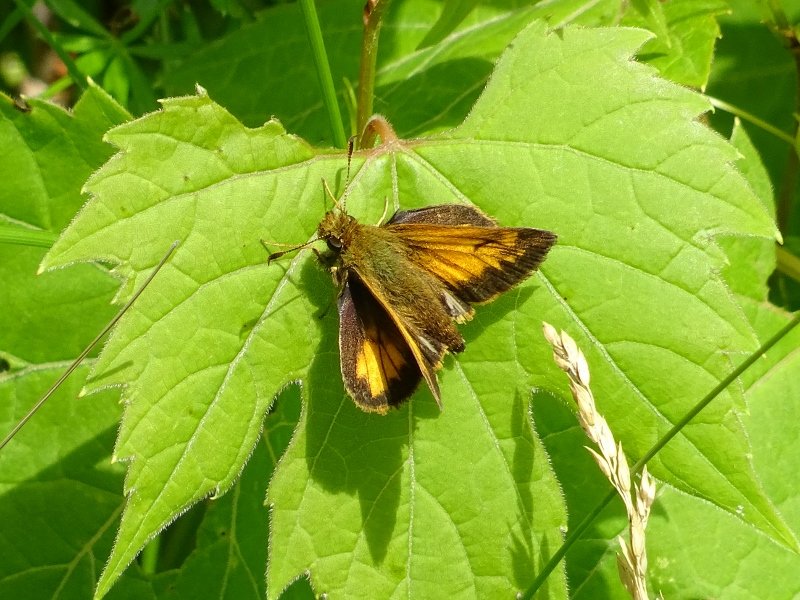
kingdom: Animalia
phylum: Arthropoda
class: Insecta
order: Lepidoptera
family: Hesperiidae
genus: Lon
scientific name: Lon hobomok
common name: Hobomok Skipper
